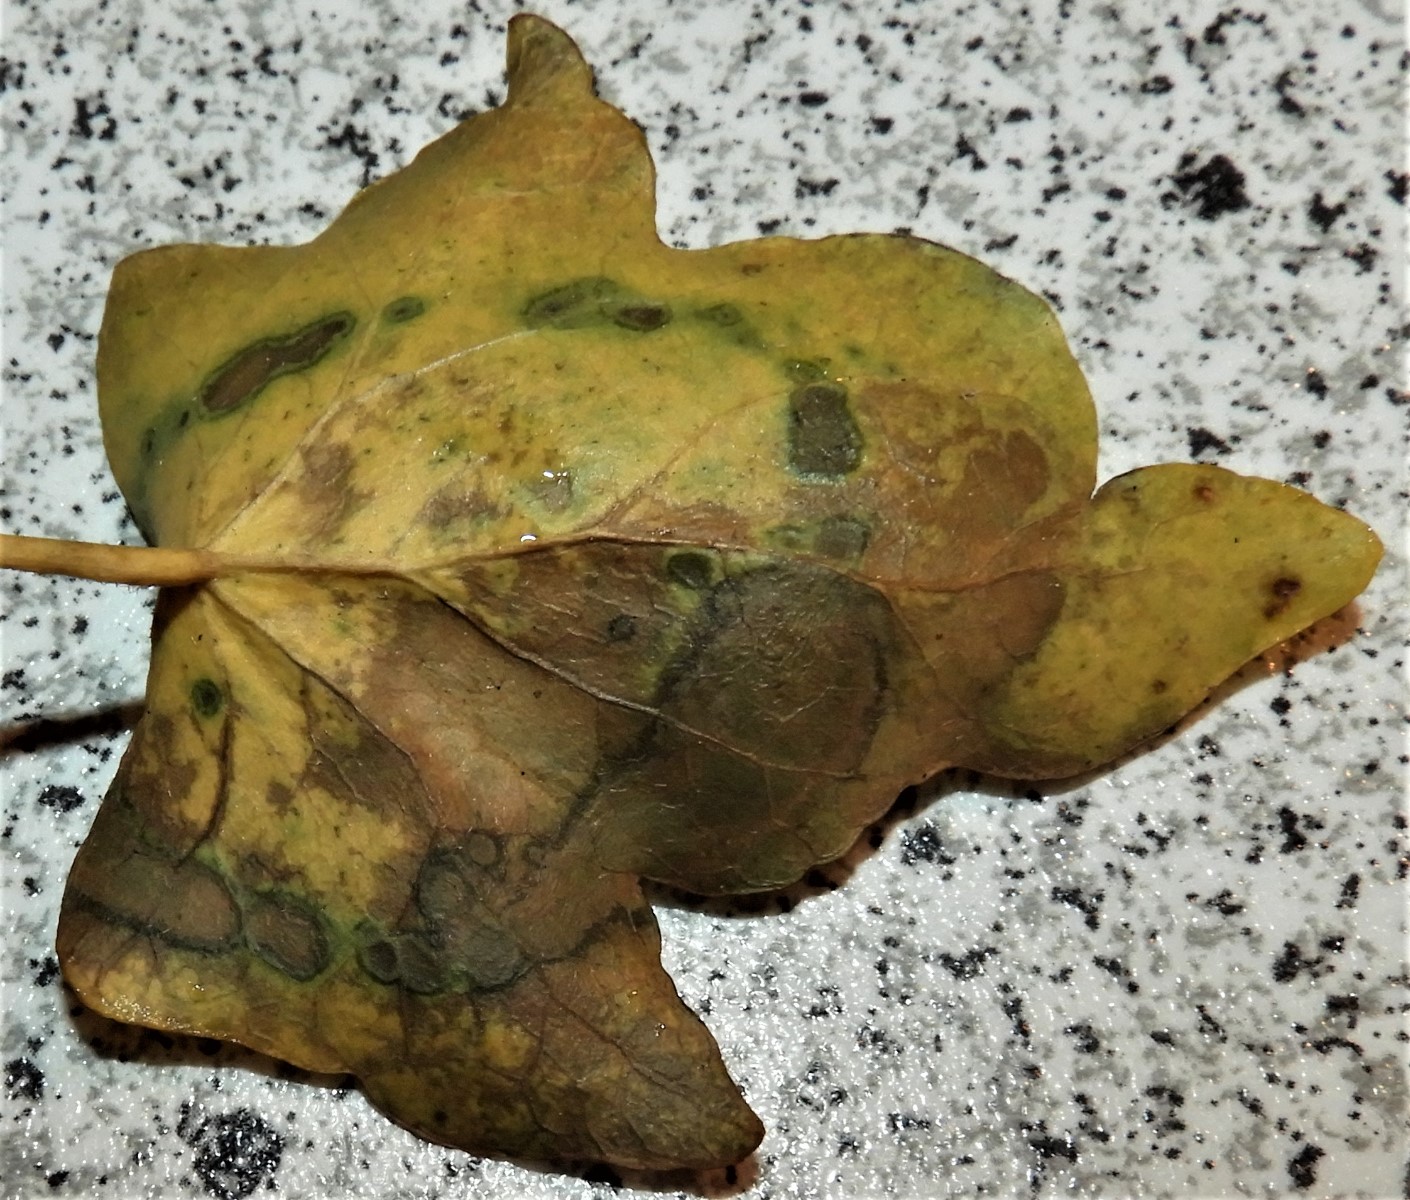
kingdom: Fungi
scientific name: Fungi
